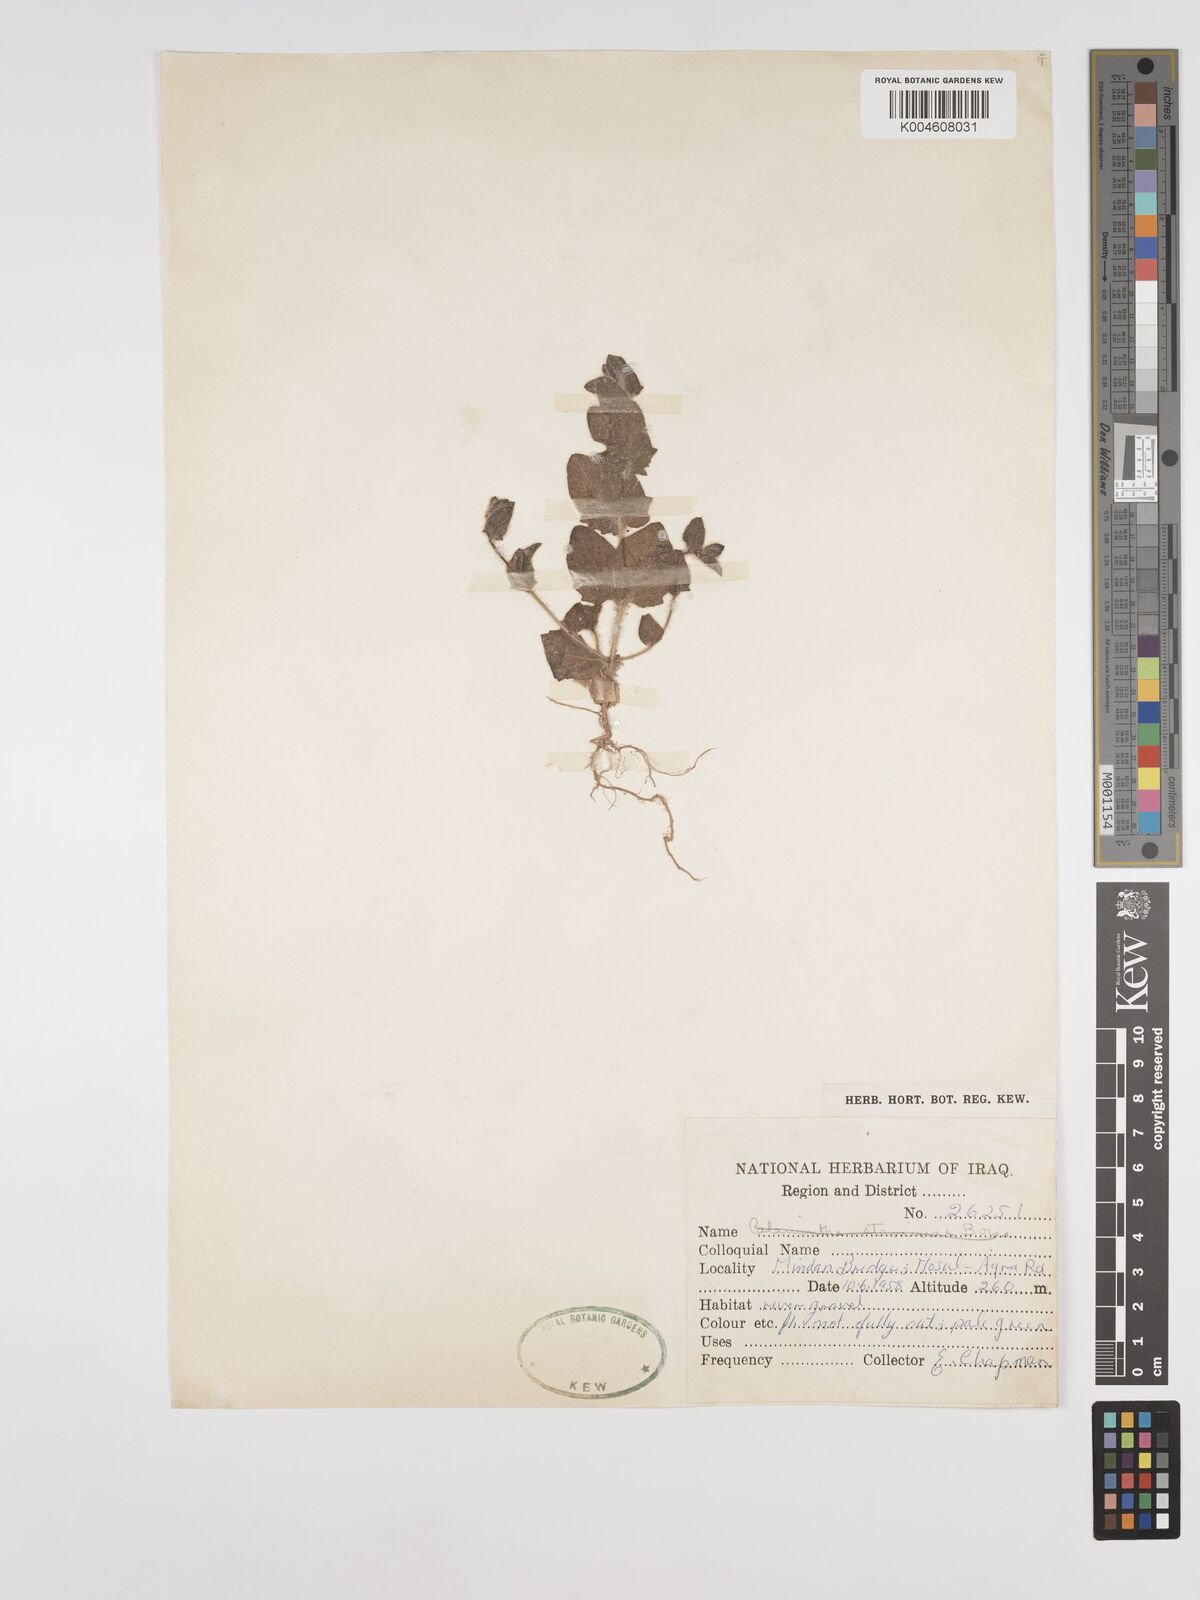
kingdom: Plantae
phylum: Tracheophyta
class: Magnoliopsida
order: Lamiales
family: Plantaginaceae
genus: Kickxia
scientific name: Kickxia elatine
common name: Sharp-leaved fluellen
